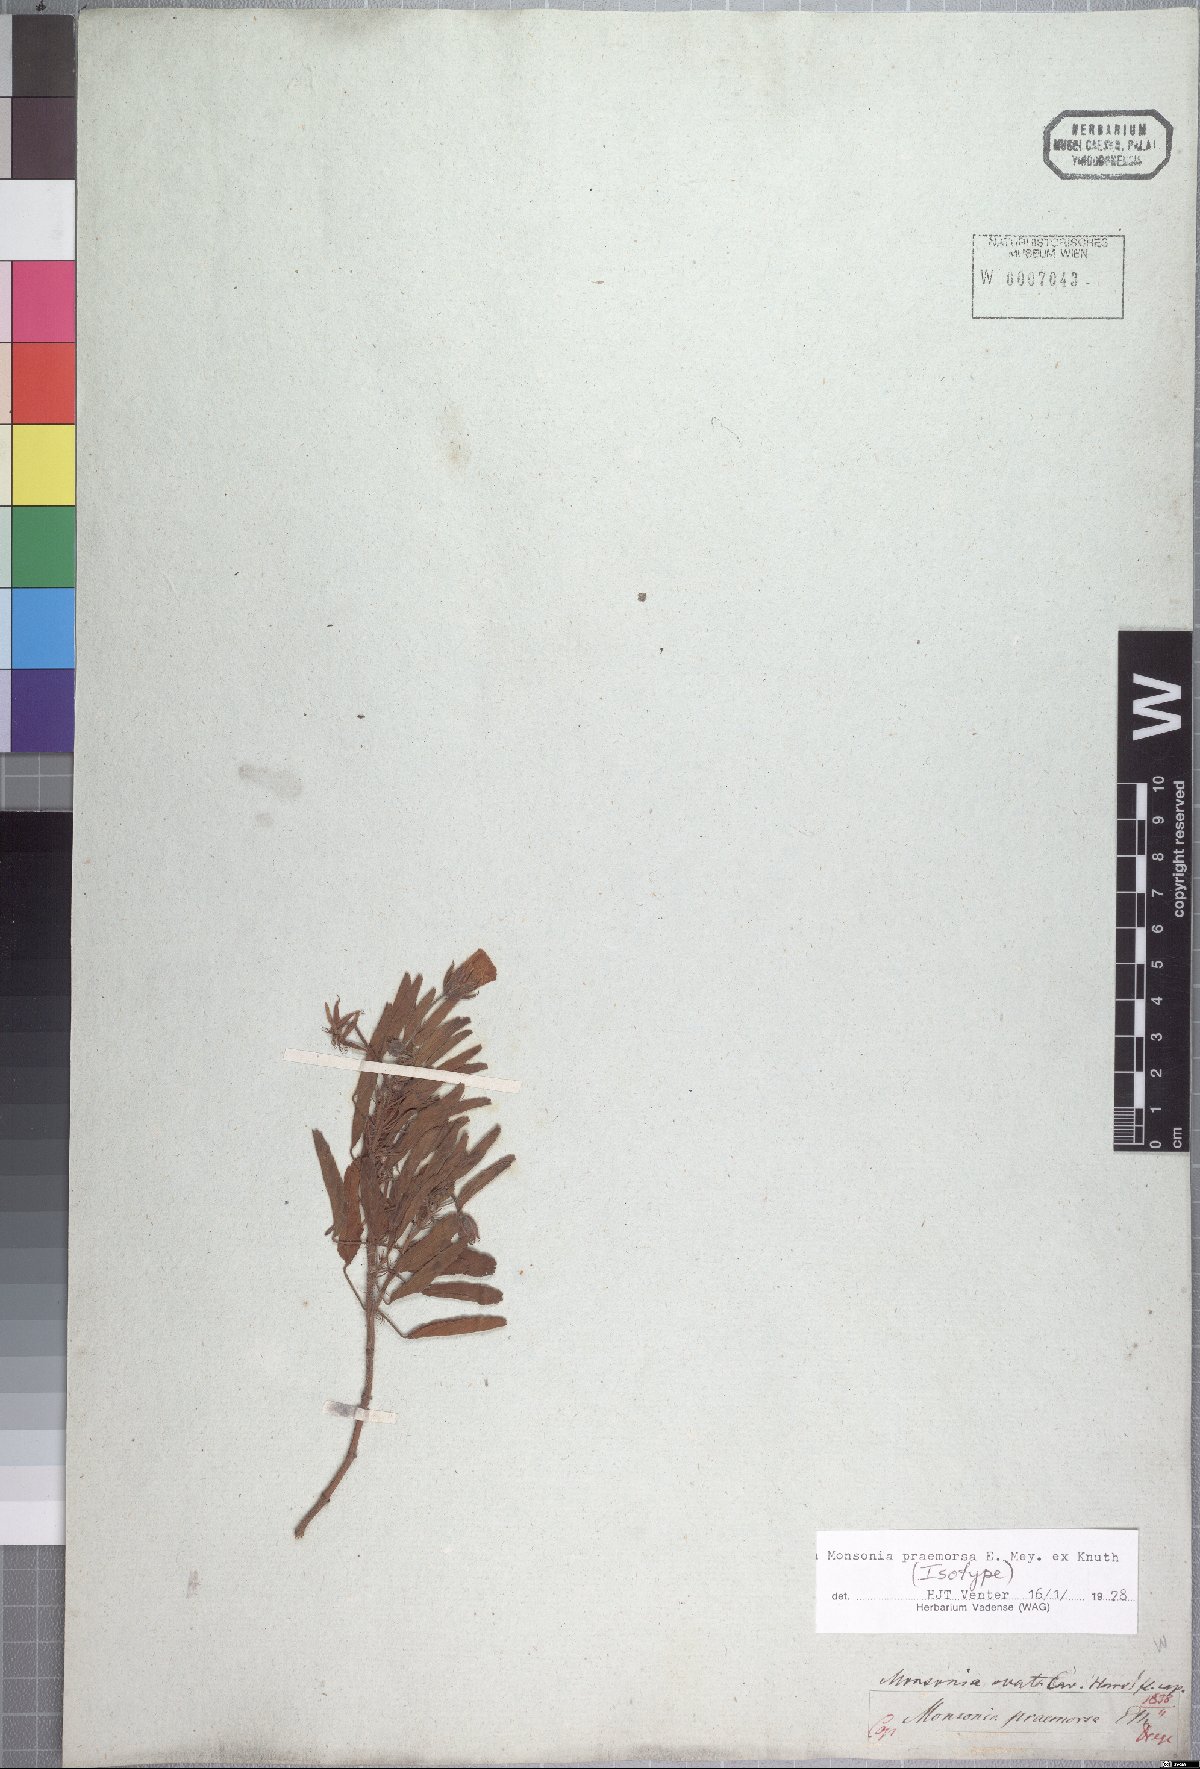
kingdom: Plantae
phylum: Tracheophyta
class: Magnoliopsida
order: Geraniales
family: Geraniaceae
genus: Monsonia
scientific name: Monsonia praemorsa
